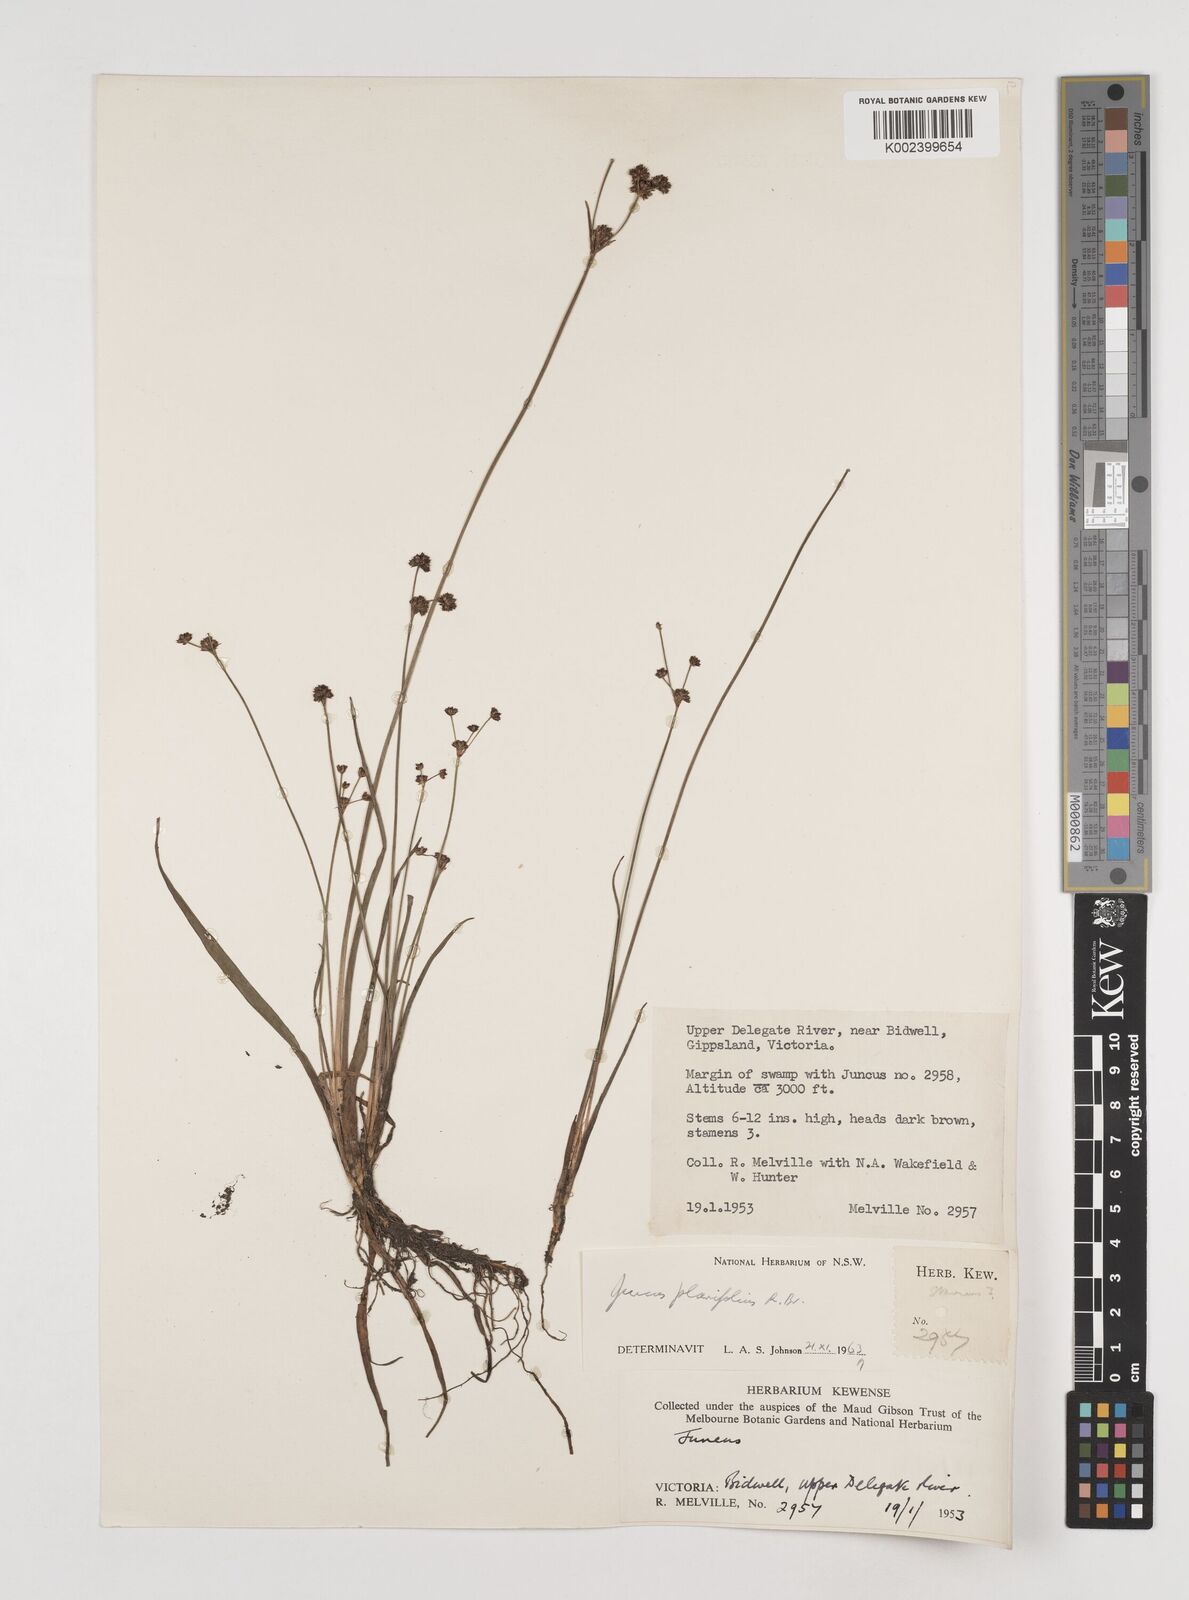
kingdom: Plantae
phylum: Tracheophyta
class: Liliopsida
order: Poales
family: Juncaceae
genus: Juncus
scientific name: Juncus planifolius
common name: Broadleaf rush
